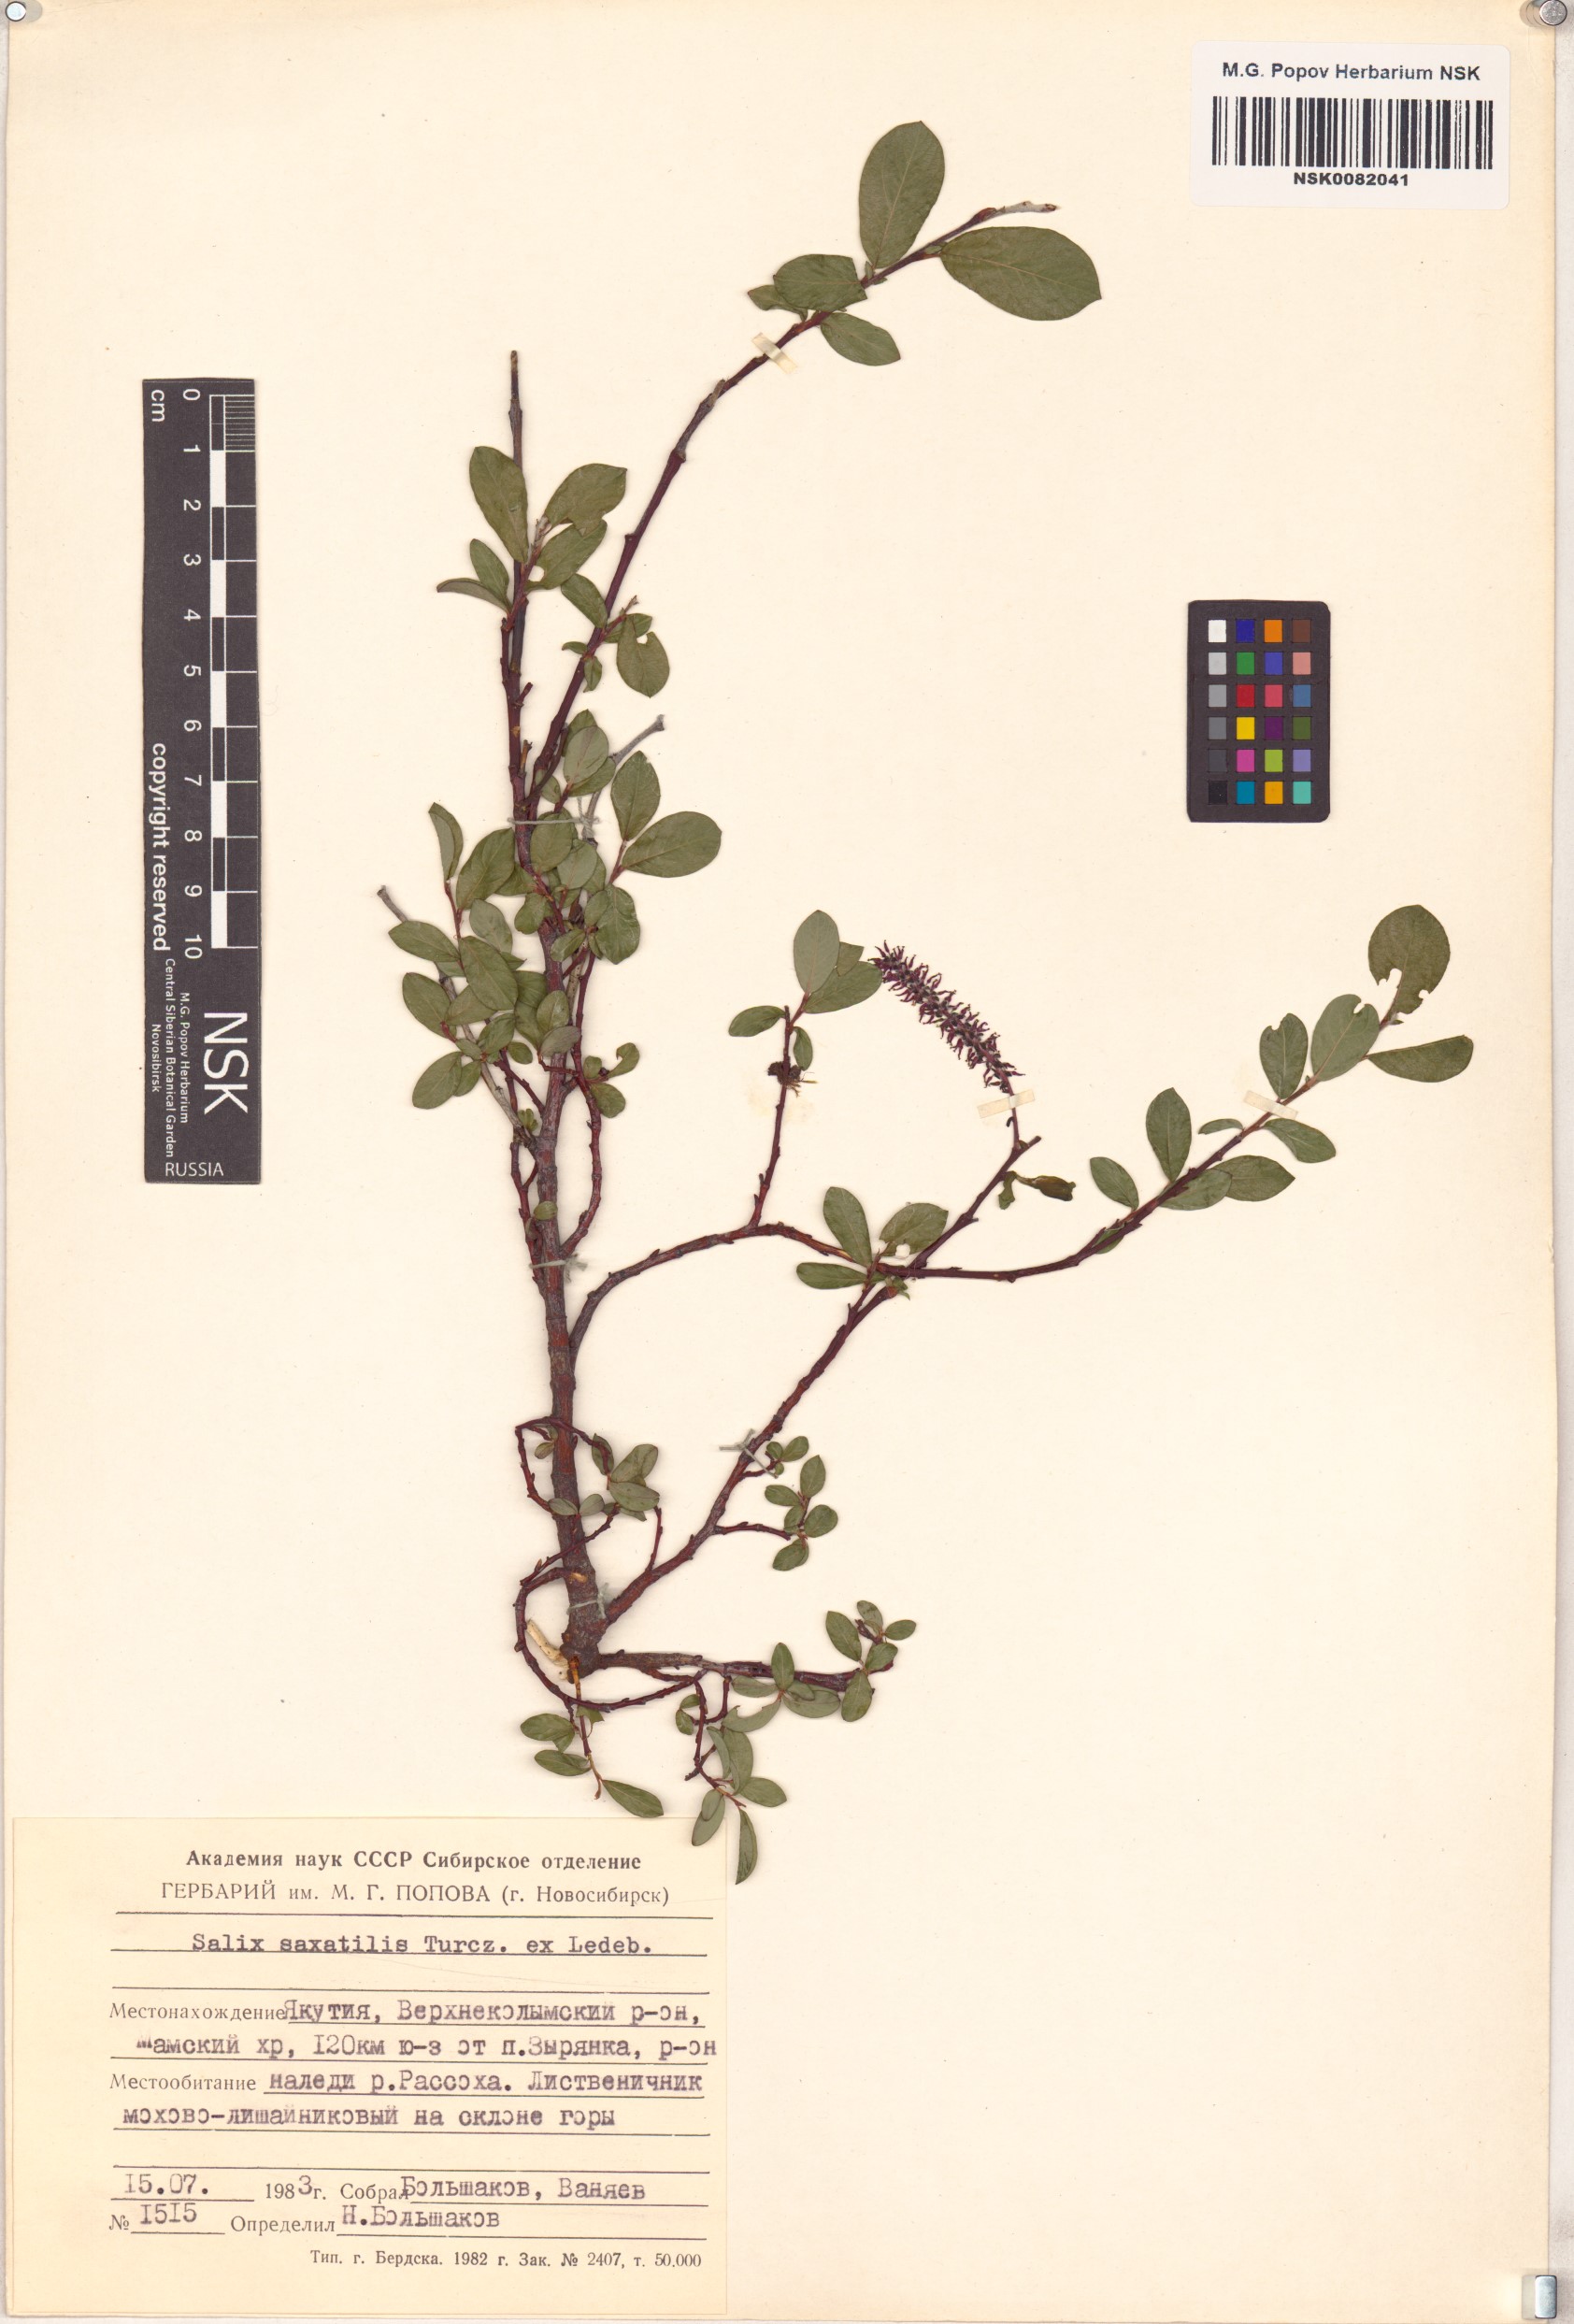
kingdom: Plantae
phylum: Tracheophyta
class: Magnoliopsida
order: Malpighiales
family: Salicaceae
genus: Salix
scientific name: Salix saxatilis
